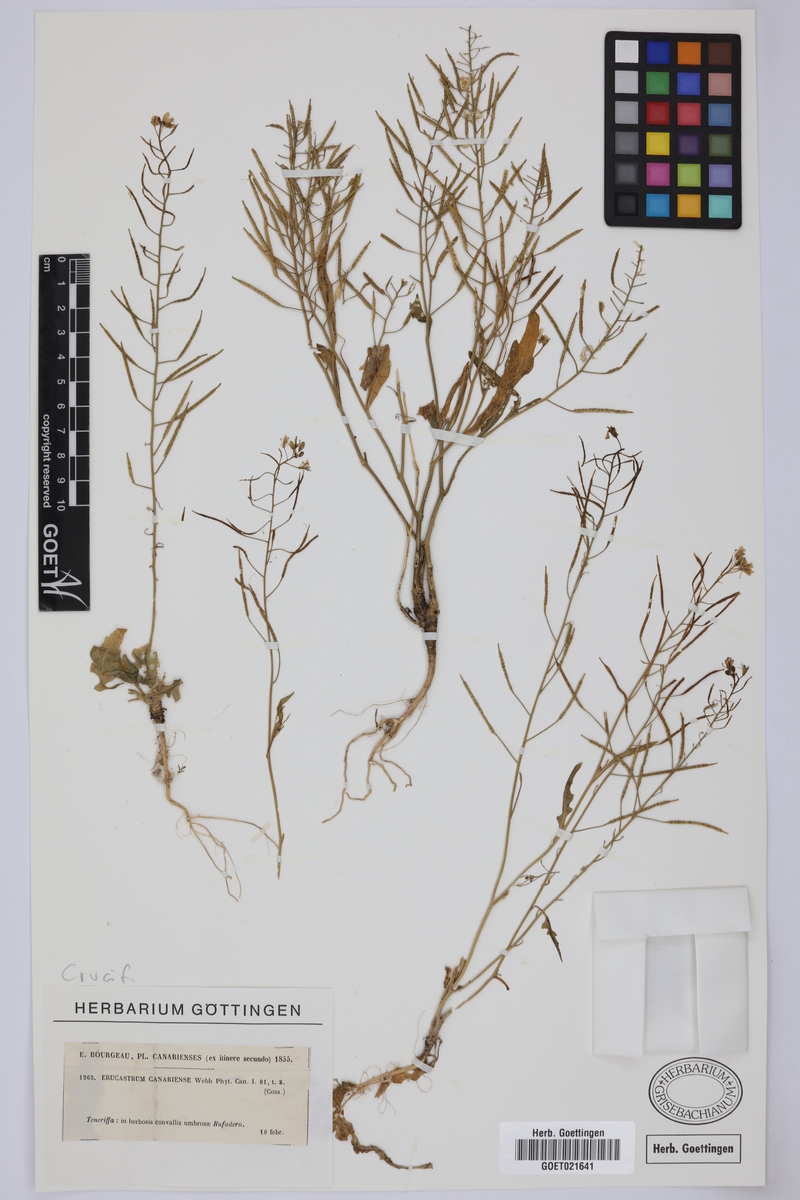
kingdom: Plantae
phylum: Tracheophyta
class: Magnoliopsida
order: Brassicales
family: Brassicaceae
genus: Erucastrum
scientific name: Erucastrum canariense
